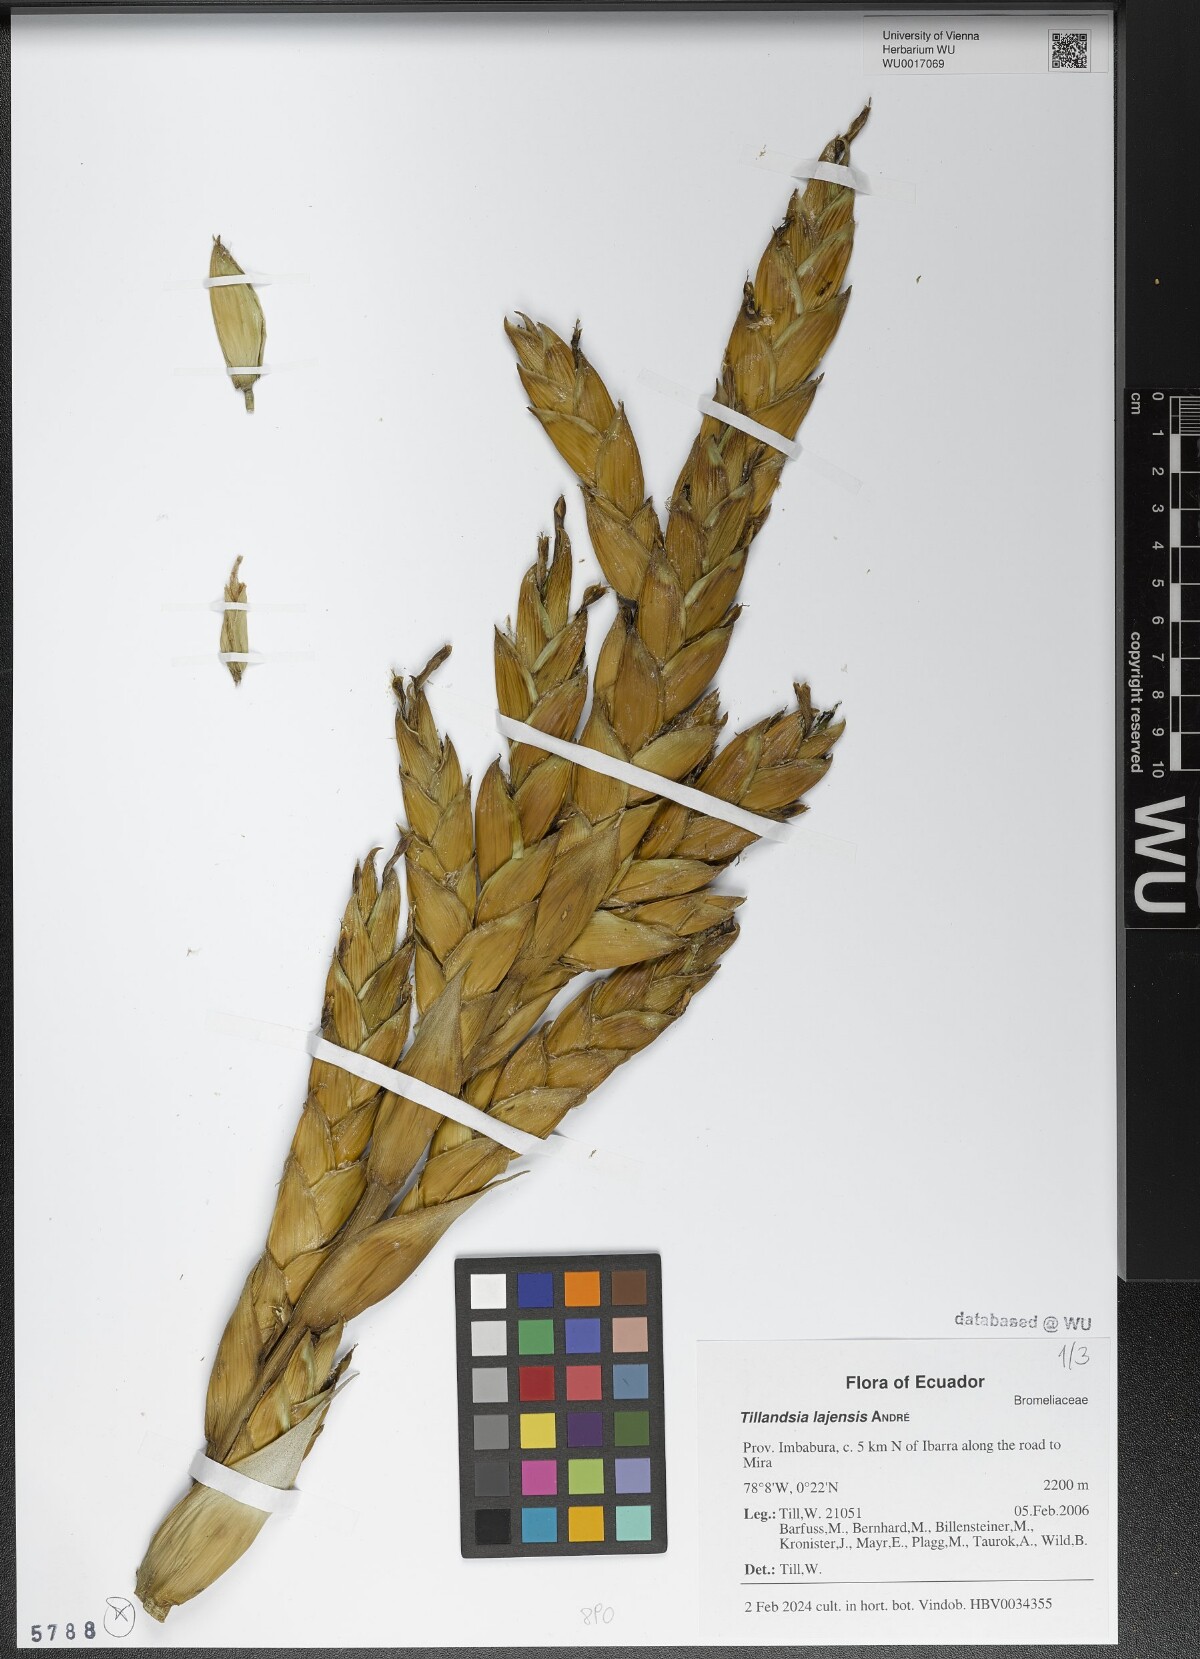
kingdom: Plantae
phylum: Tracheophyta
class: Liliopsida
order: Poales
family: Bromeliaceae
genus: Tillandsia
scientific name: Tillandsia lajensis
